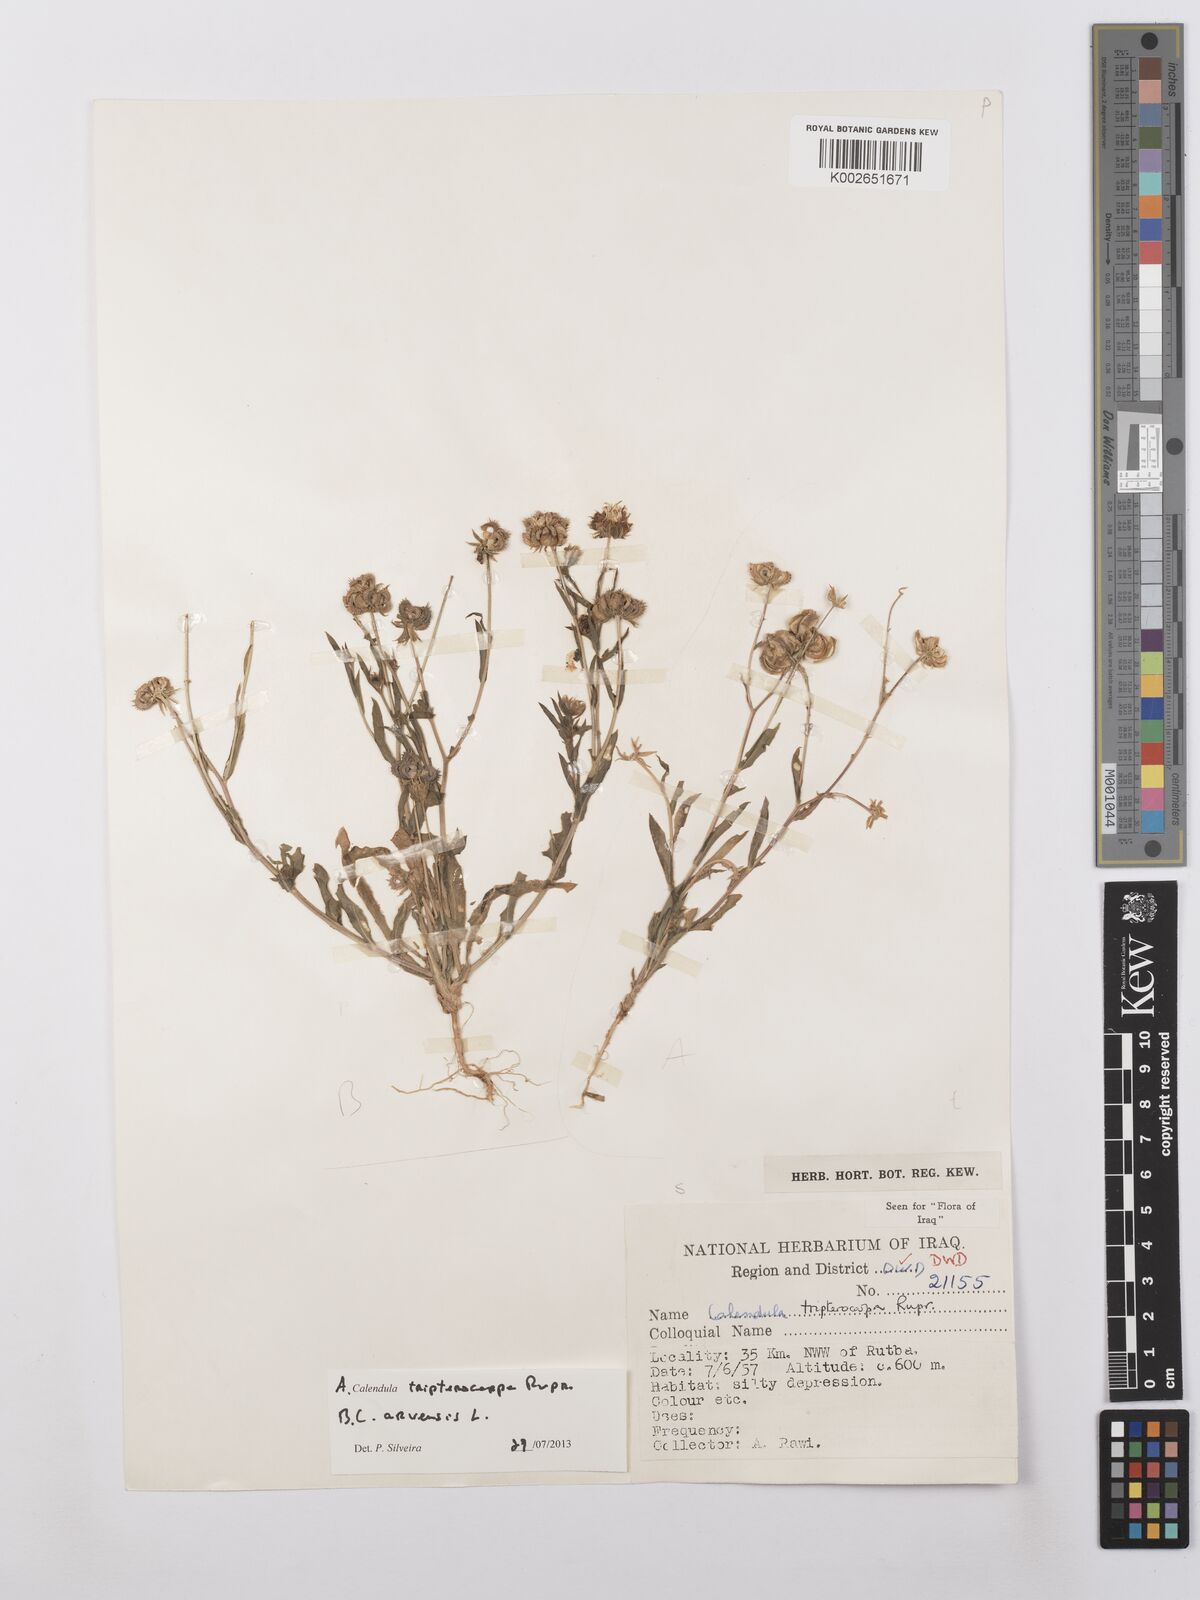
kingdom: Plantae
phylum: Tracheophyta
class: Magnoliopsida
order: Asterales
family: Asteraceae
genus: Calendula
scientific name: Calendula tripterocarpa
